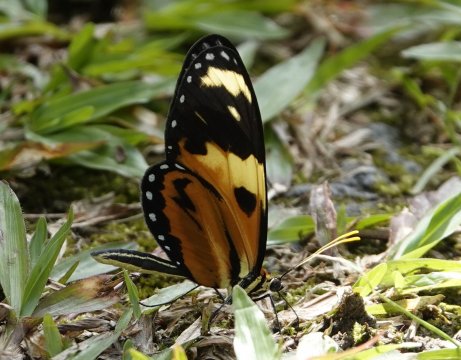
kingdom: Animalia
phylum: Arthropoda
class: Insecta
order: Lepidoptera
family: Nymphalidae
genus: Heliconius
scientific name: Heliconius hecale
